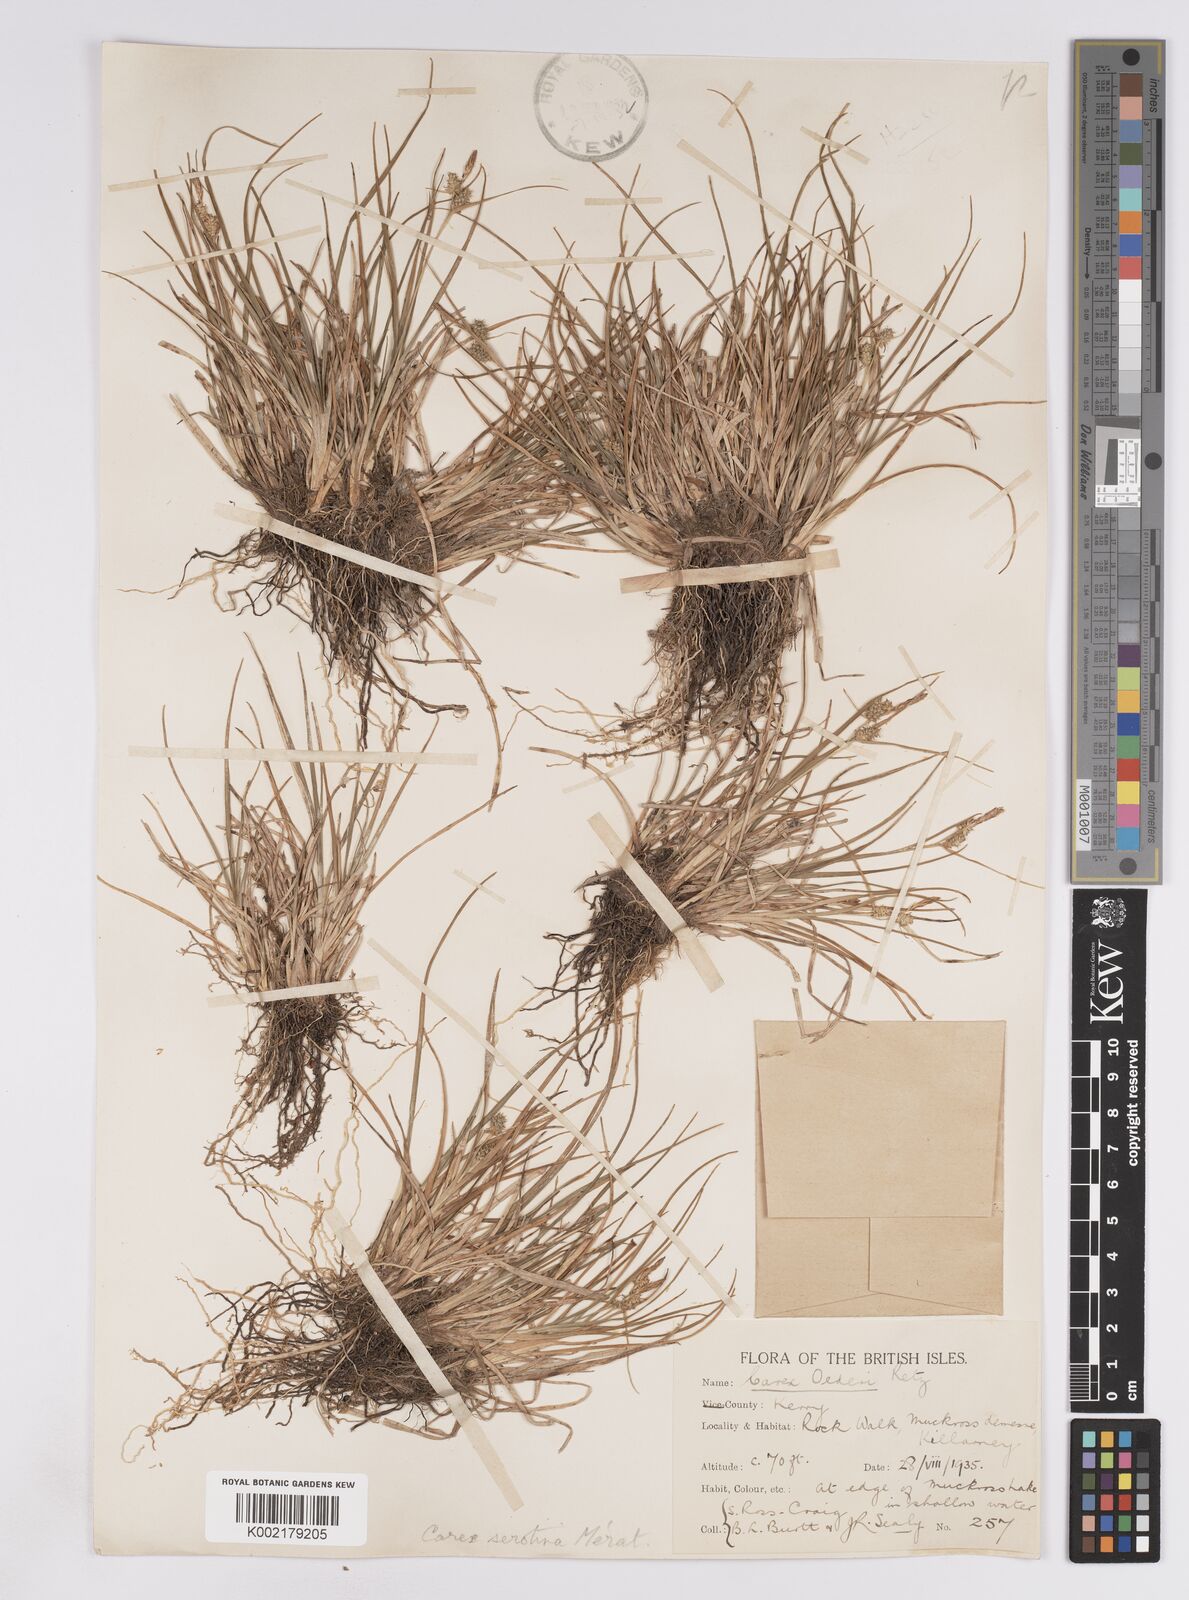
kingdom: Plantae
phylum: Tracheophyta
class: Liliopsida
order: Poales
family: Cyperaceae
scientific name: Cyperaceae
